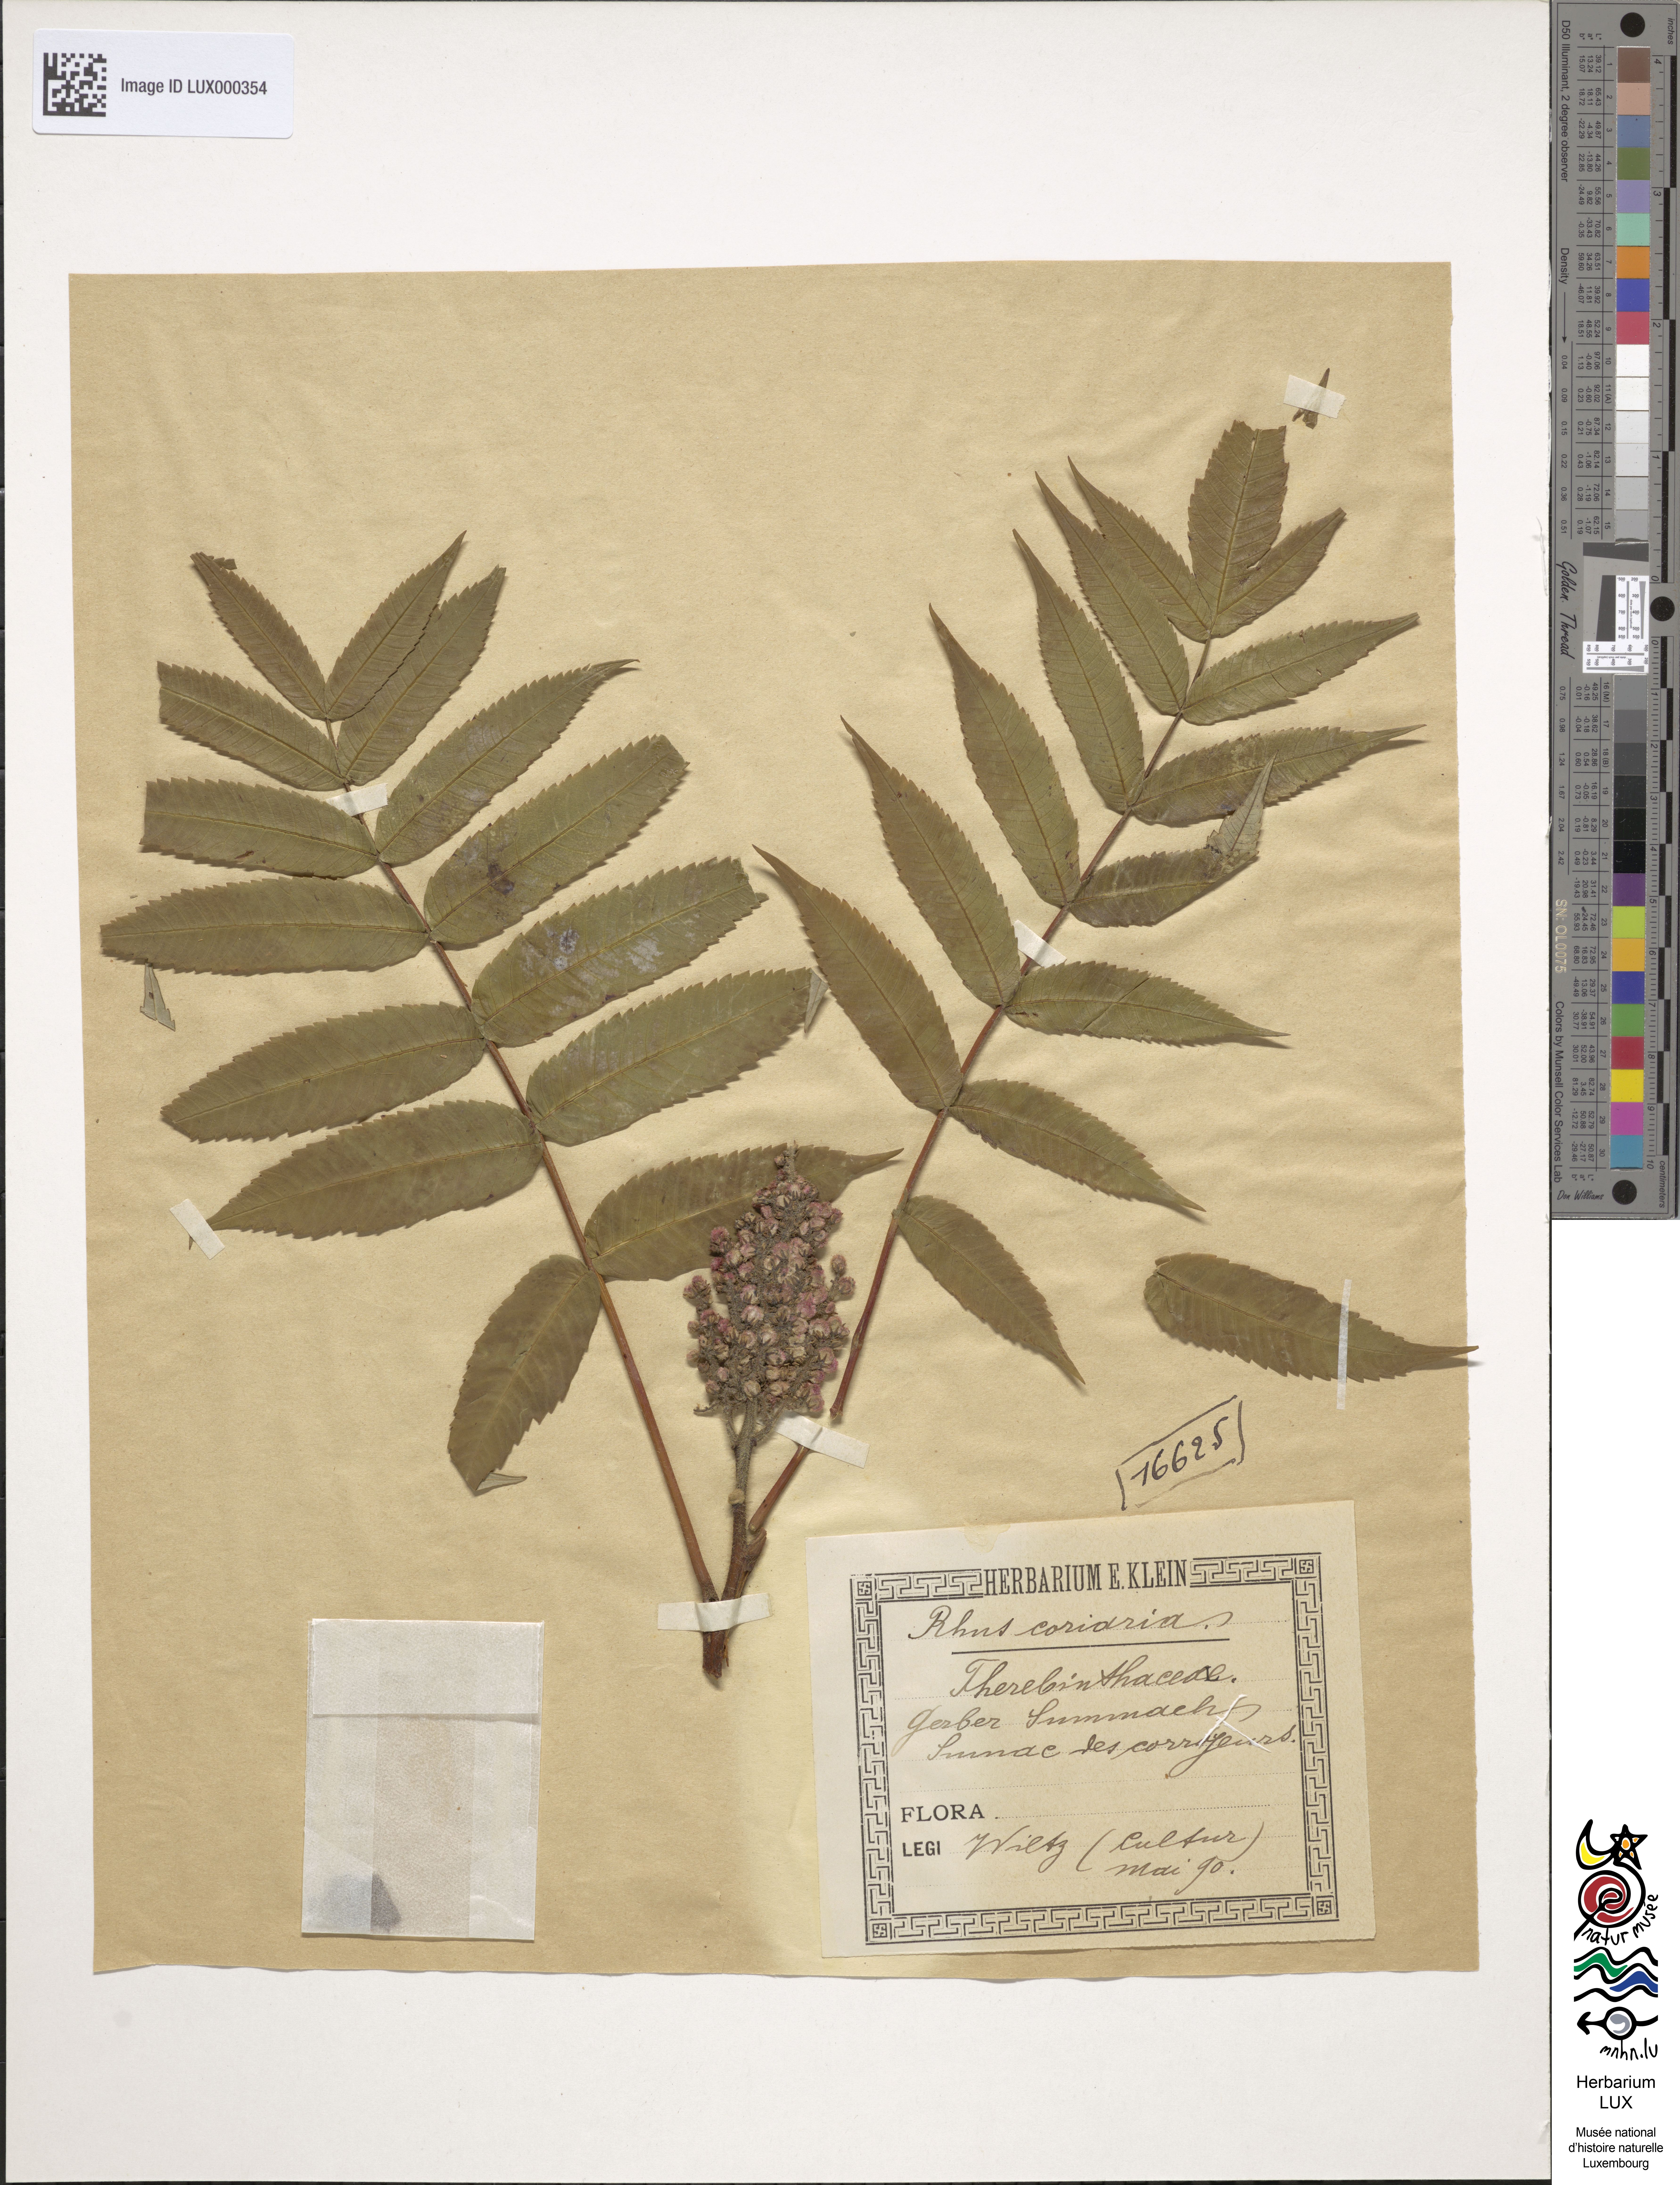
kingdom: Plantae
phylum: Tracheophyta
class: Magnoliopsida
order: Sapindales
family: Anacardiaceae
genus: Rhus
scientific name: Rhus coriaria
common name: Tanner's sumach
